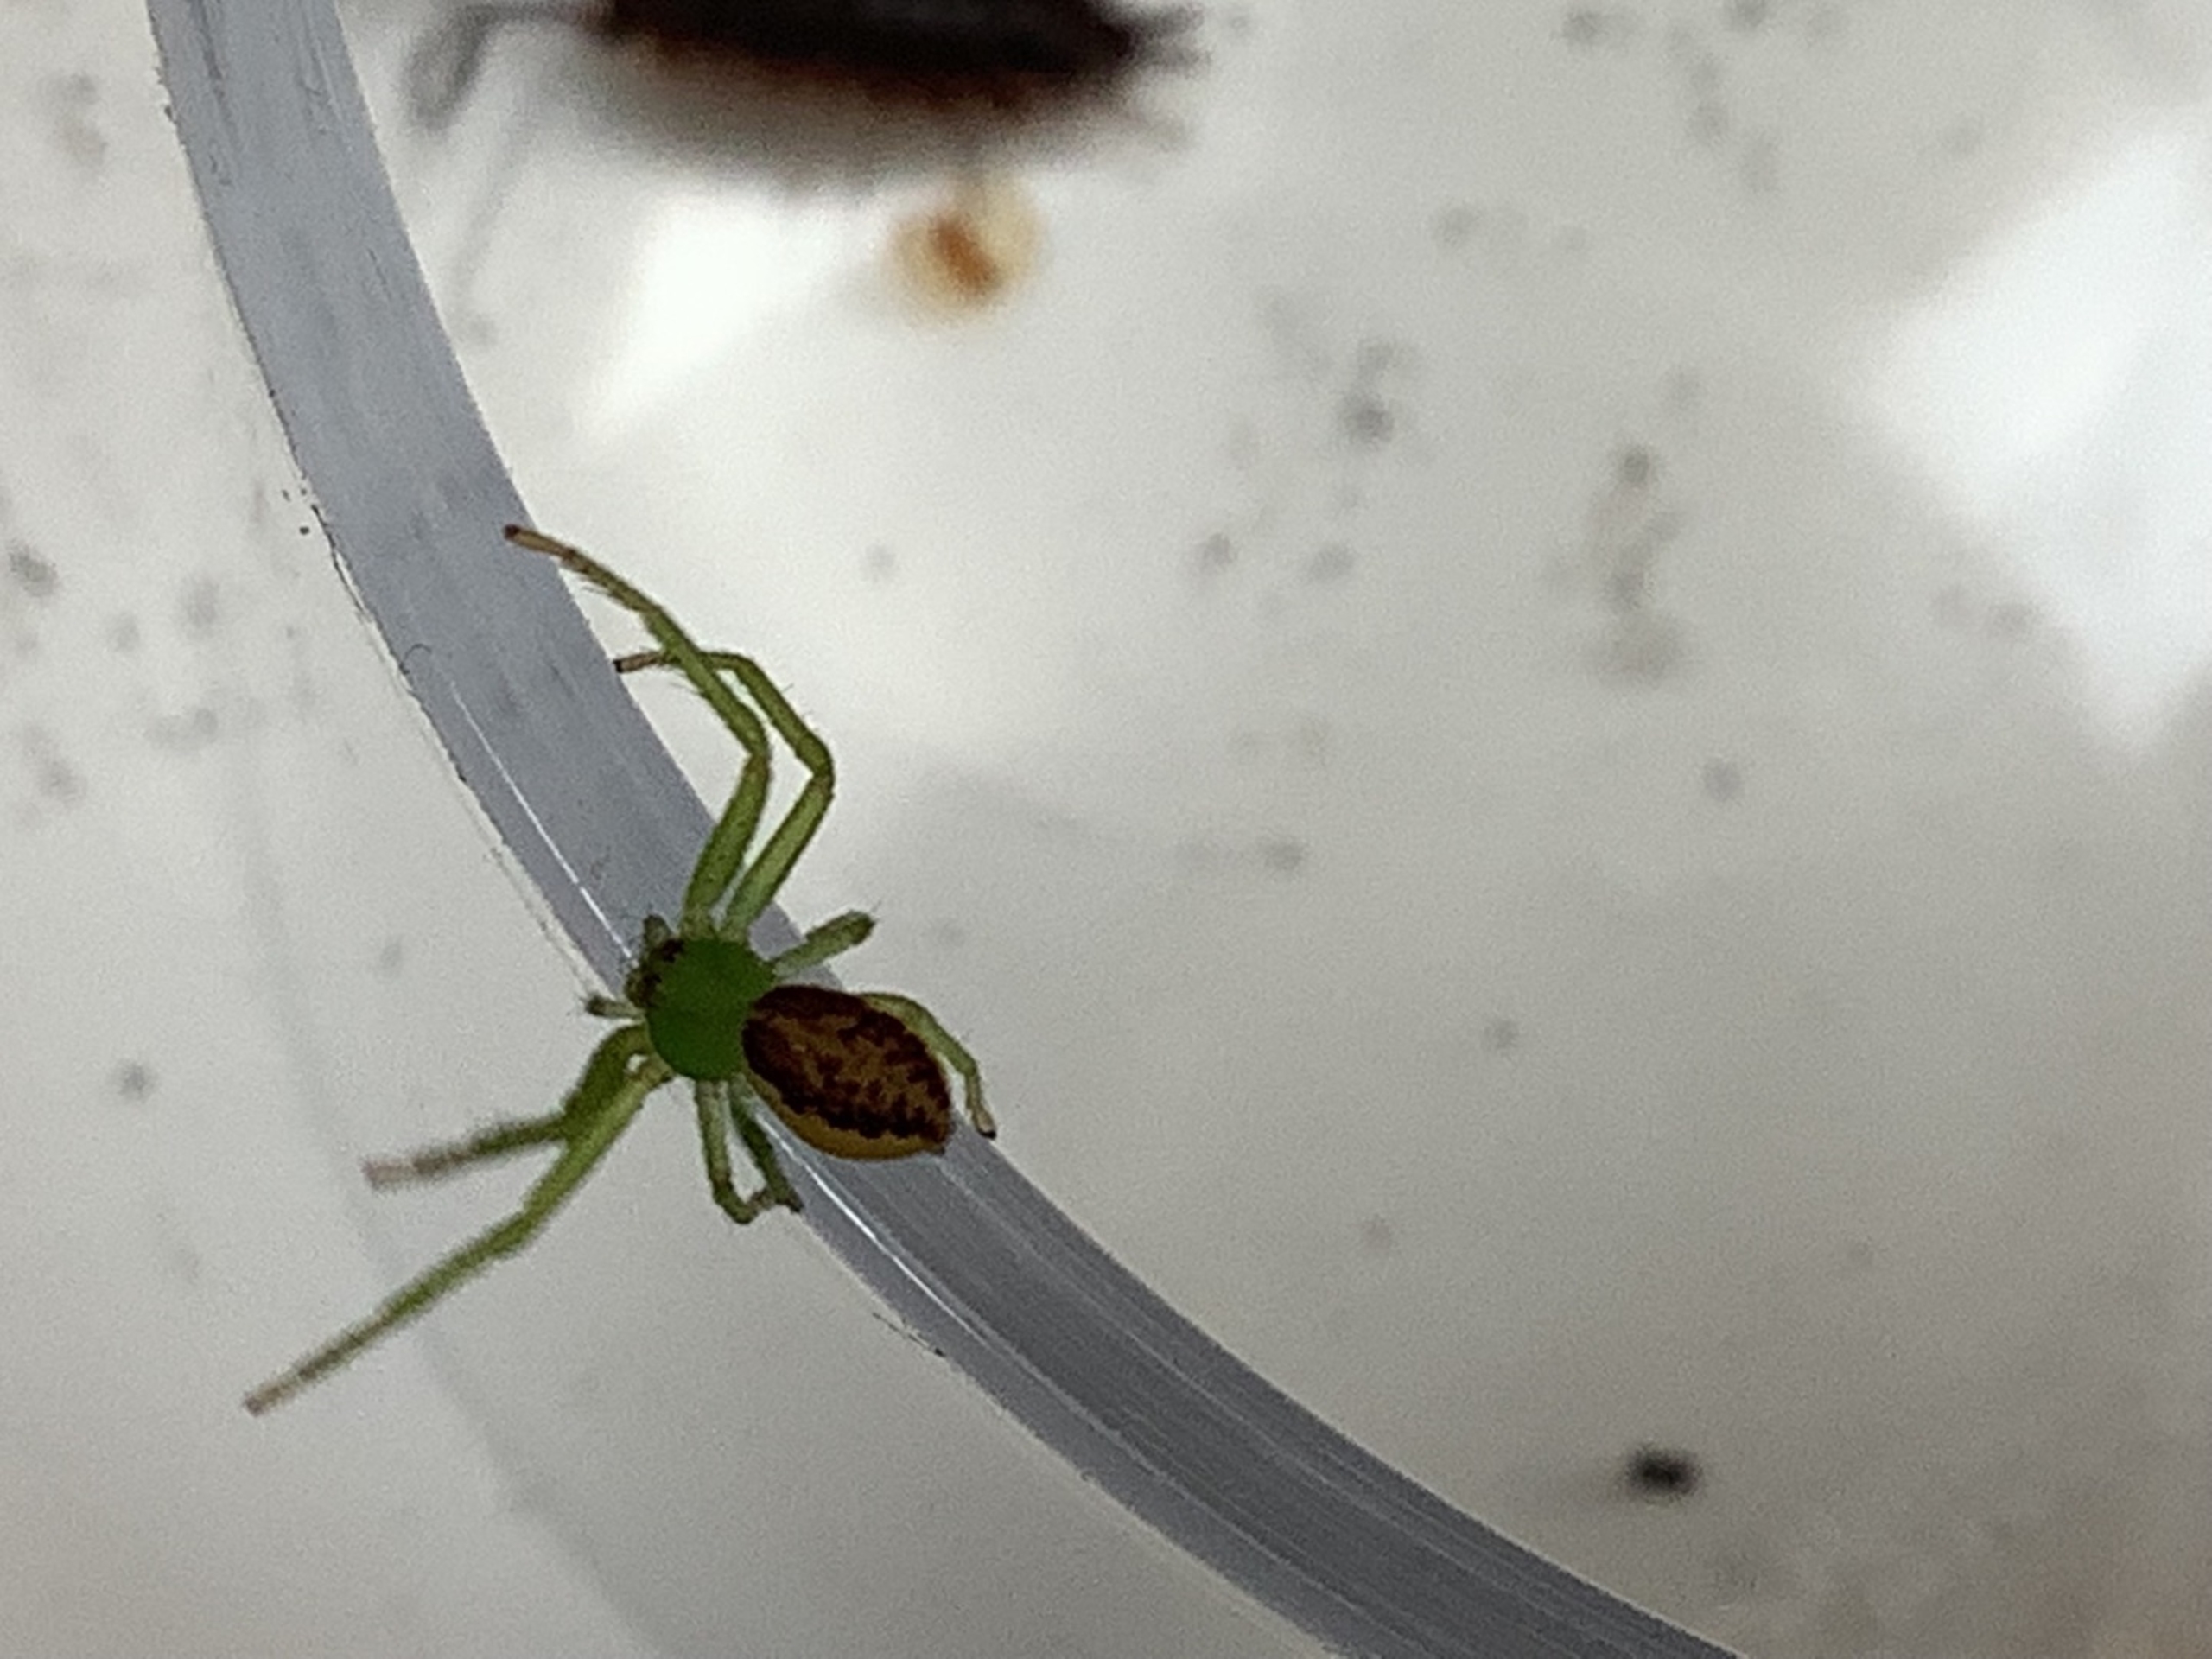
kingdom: Animalia
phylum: Arthropoda
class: Arachnida
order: Araneae
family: Thomisidae
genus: Diaea
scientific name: Diaea dorsata
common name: Grøn krabbeedderkop
